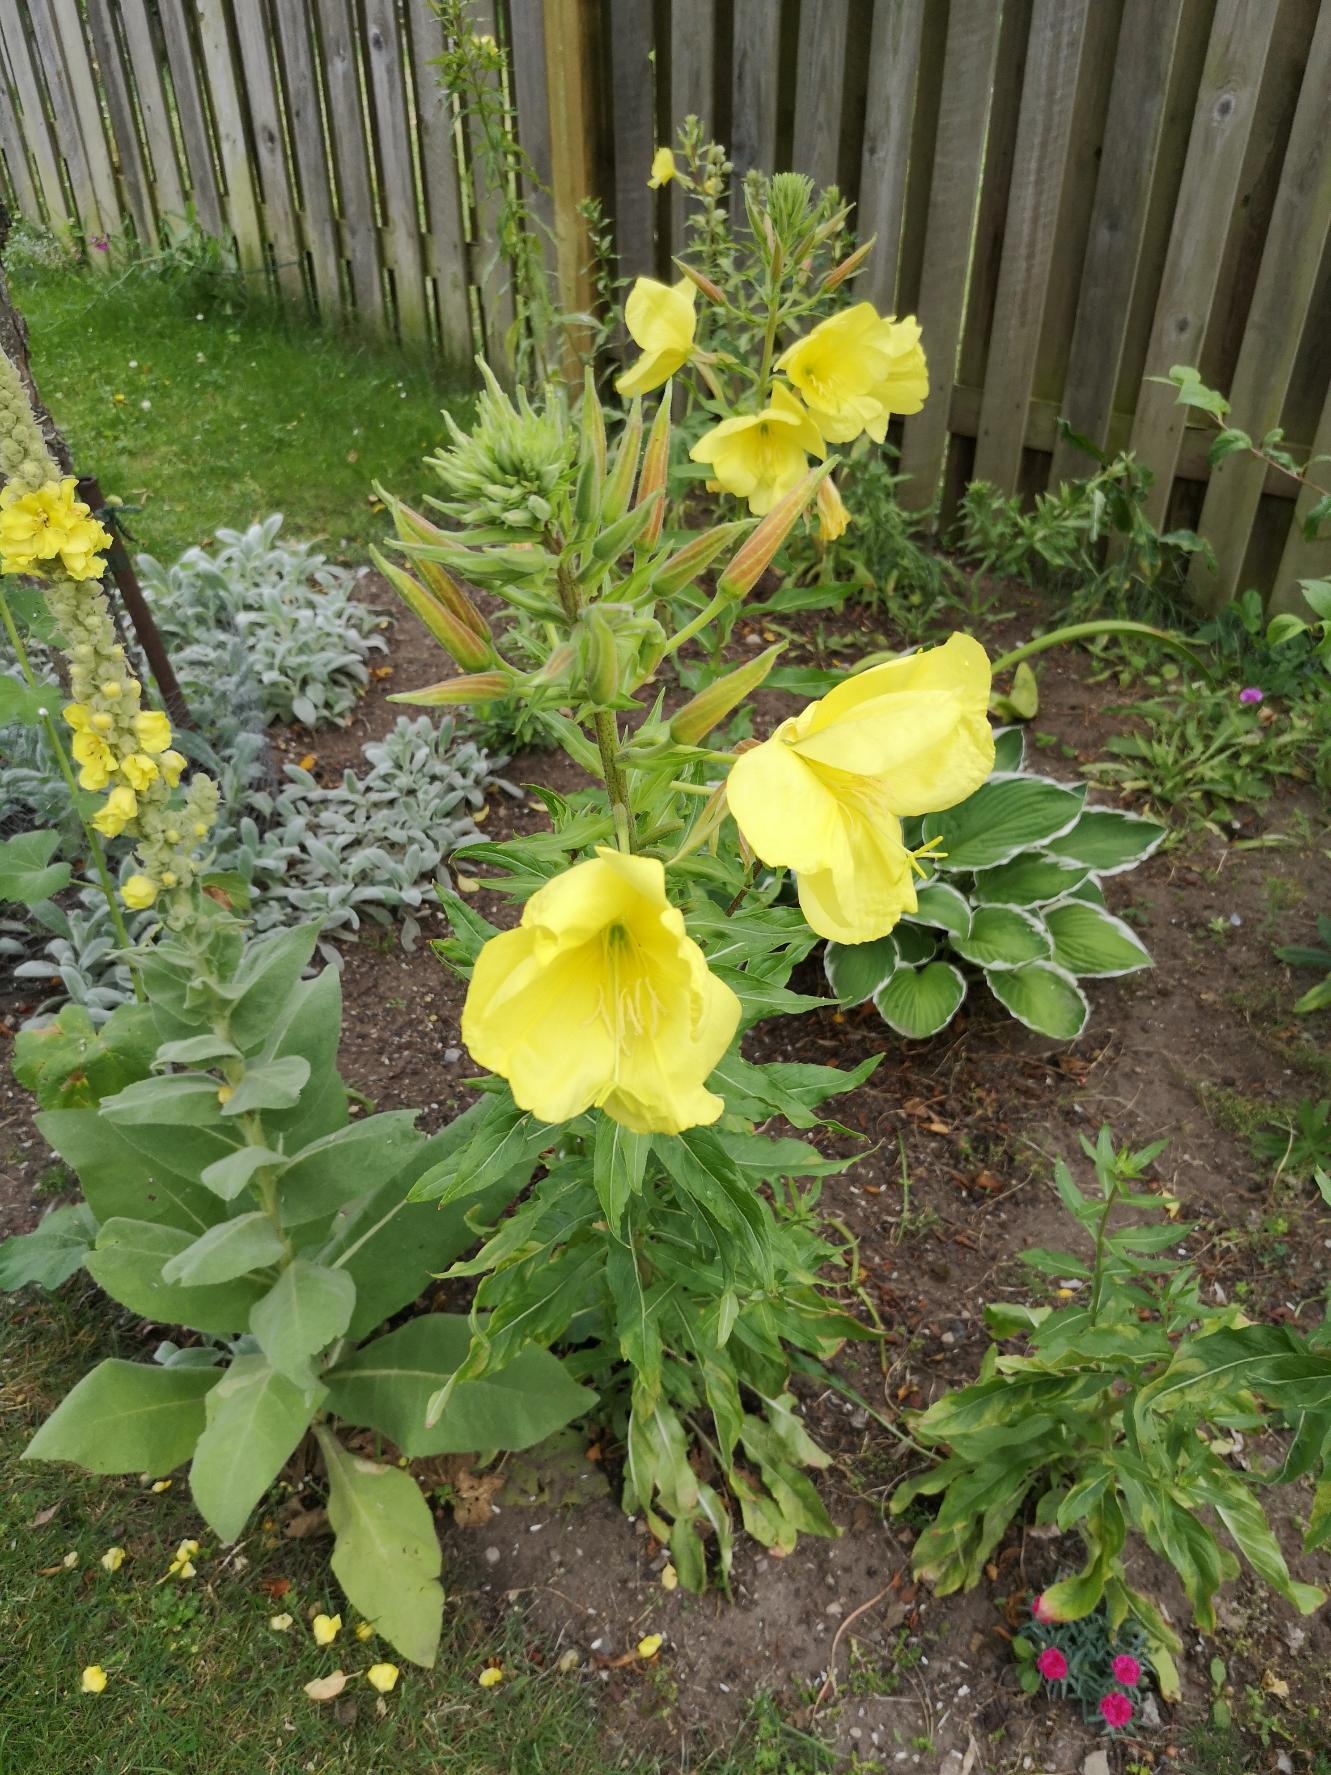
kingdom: Plantae
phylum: Tracheophyta
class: Magnoliopsida
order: Myrtales
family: Onagraceae
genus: Oenothera
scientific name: Oenothera glazioviana
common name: Kæmpe-natlys
